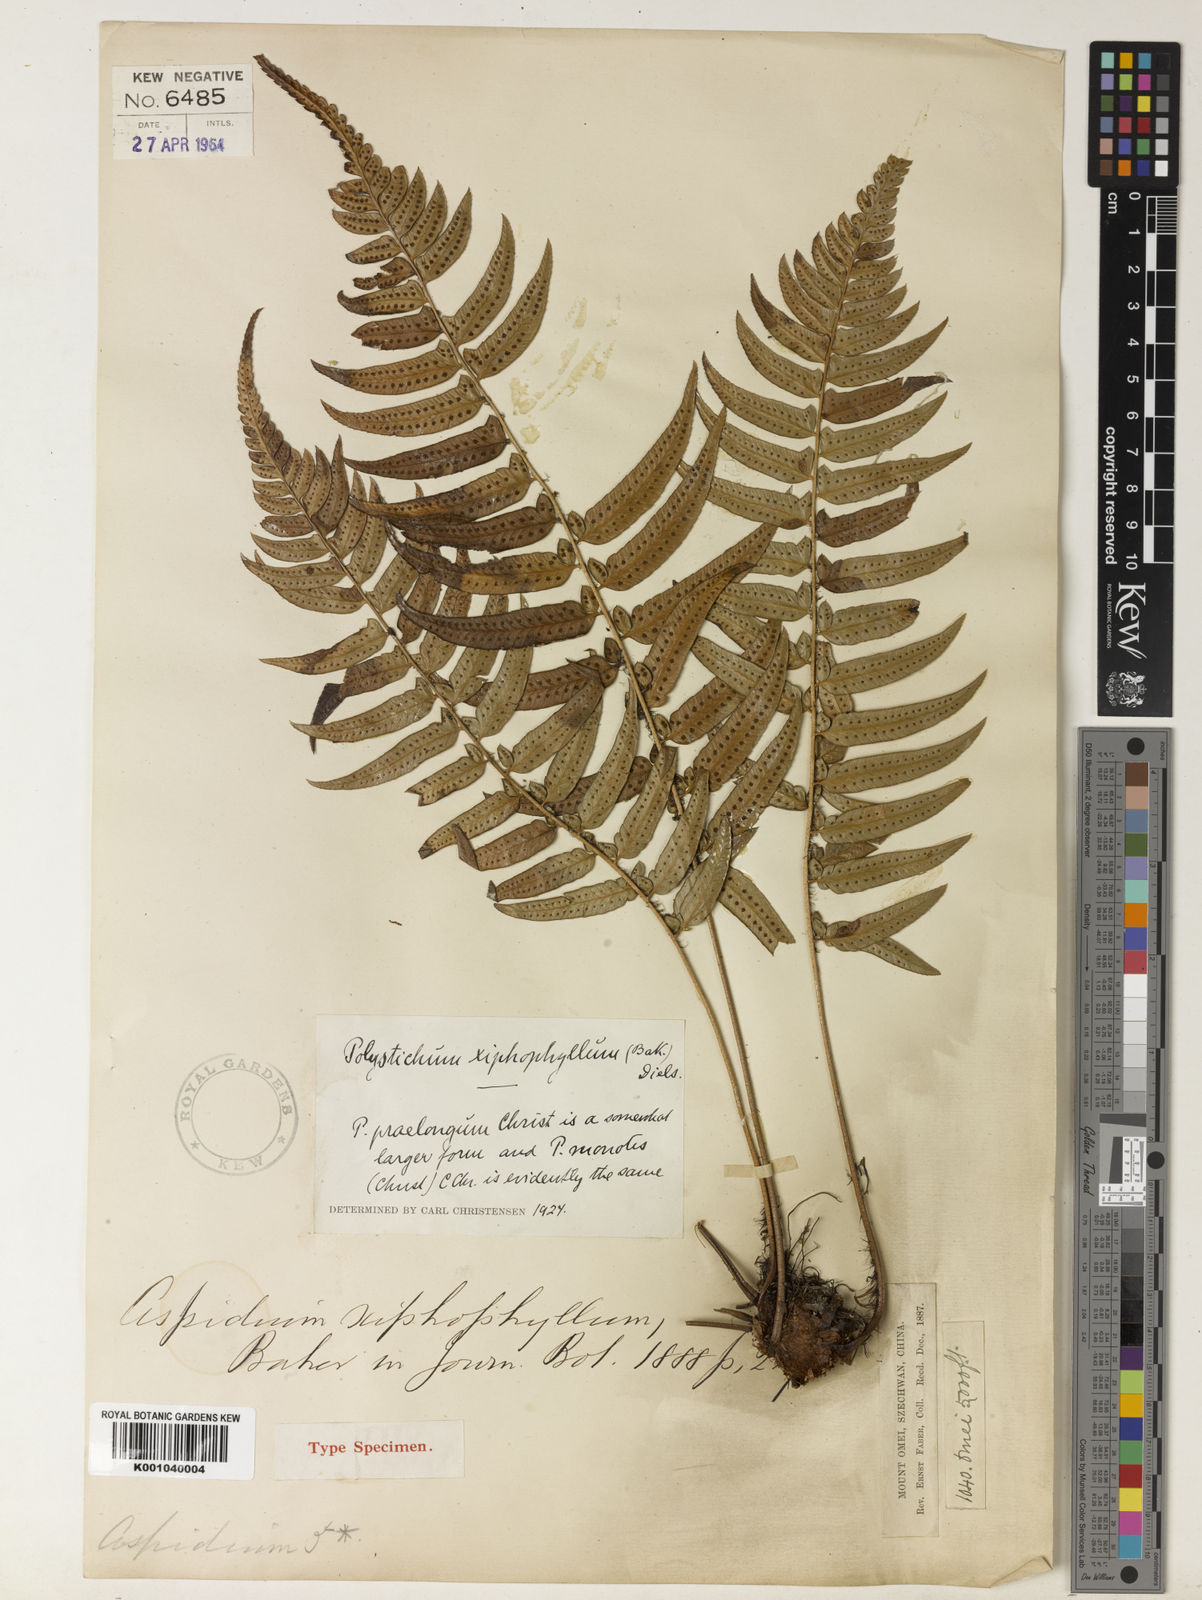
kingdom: Plantae
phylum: Tracheophyta
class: Polypodiopsida
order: Polypodiales
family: Dryopteridaceae
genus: Polystichum
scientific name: Polystichum xiphophyllum
